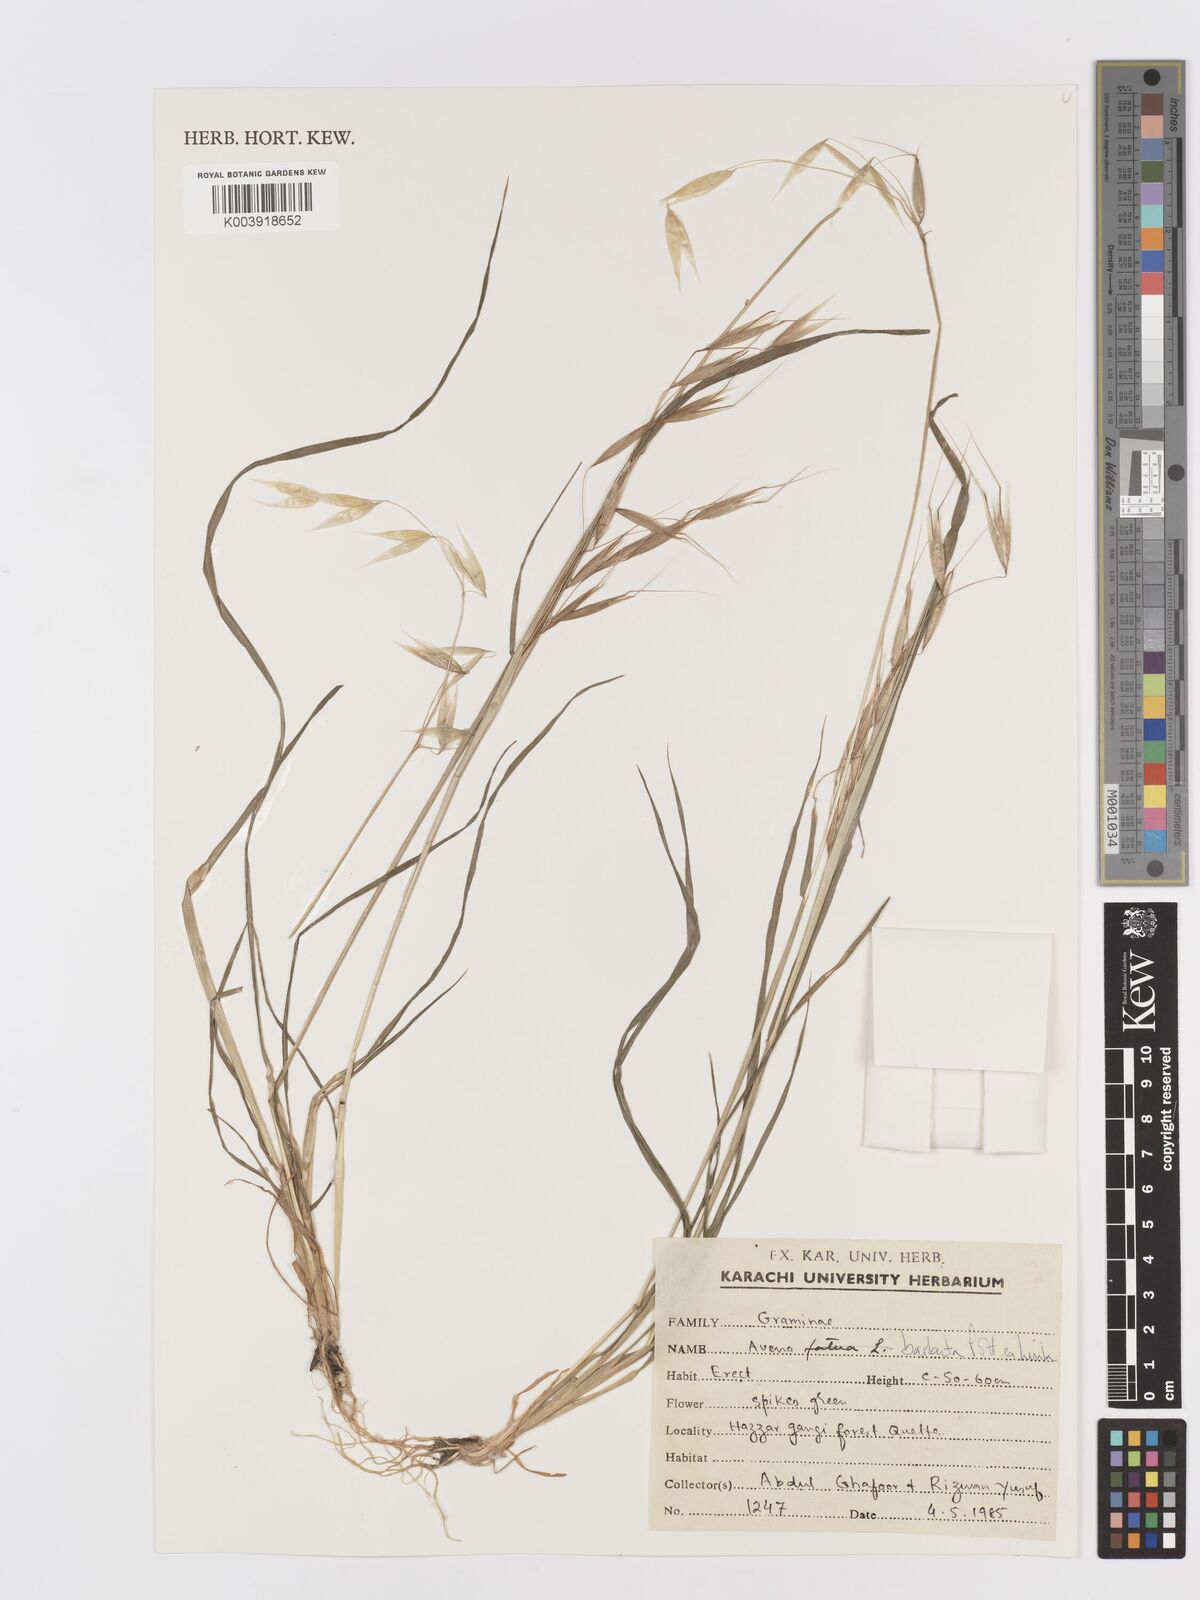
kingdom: Plantae
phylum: Tracheophyta
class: Liliopsida
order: Poales
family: Poaceae
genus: Avena
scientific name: Avena
